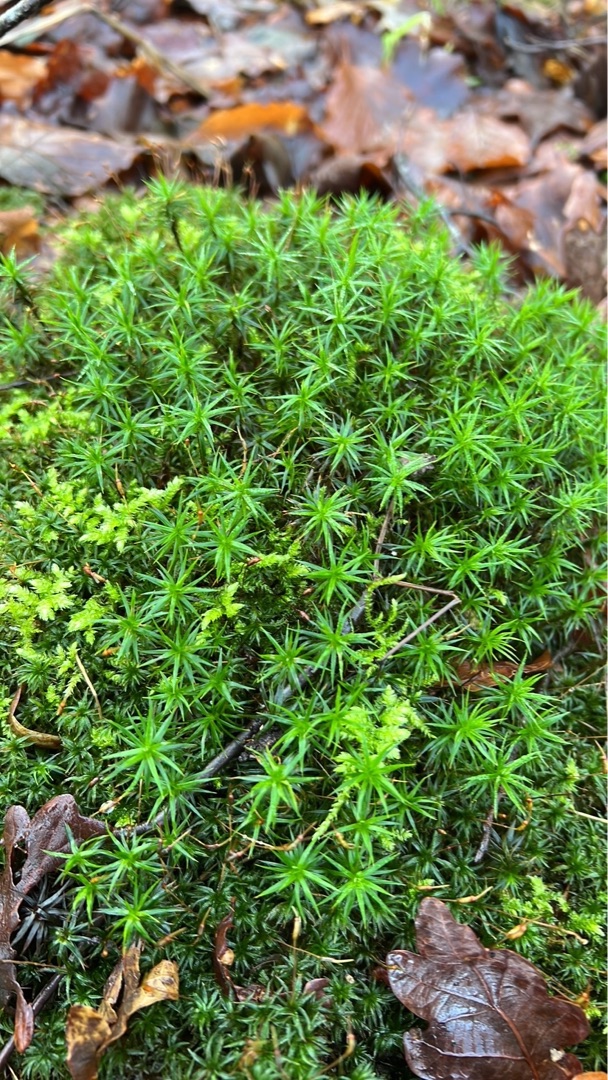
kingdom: Plantae
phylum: Bryophyta
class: Polytrichopsida
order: Polytrichales
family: Polytrichaceae
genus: Polytrichum
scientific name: Polytrichum formosum
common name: Skov-jomfruhår
